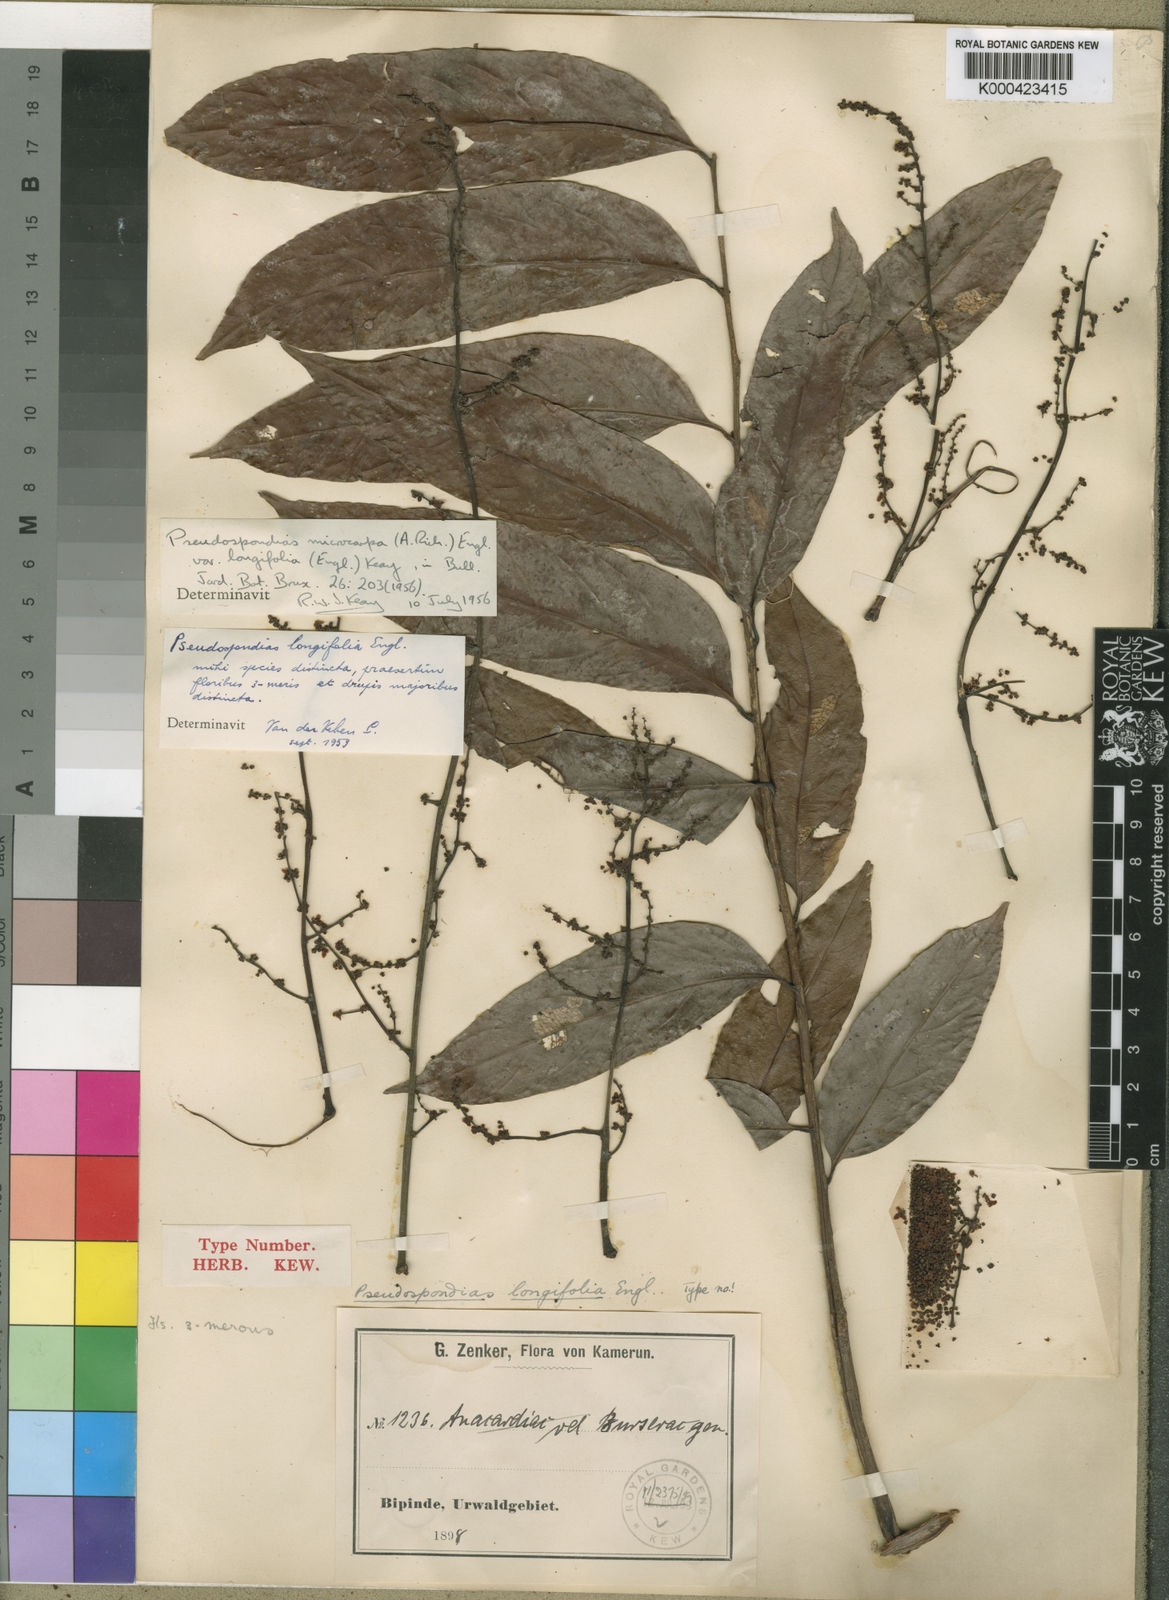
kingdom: Plantae
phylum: Tracheophyta
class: Magnoliopsida
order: Sapindales
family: Anacardiaceae
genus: Pseudospondias
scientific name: Pseudospondias longifolia
